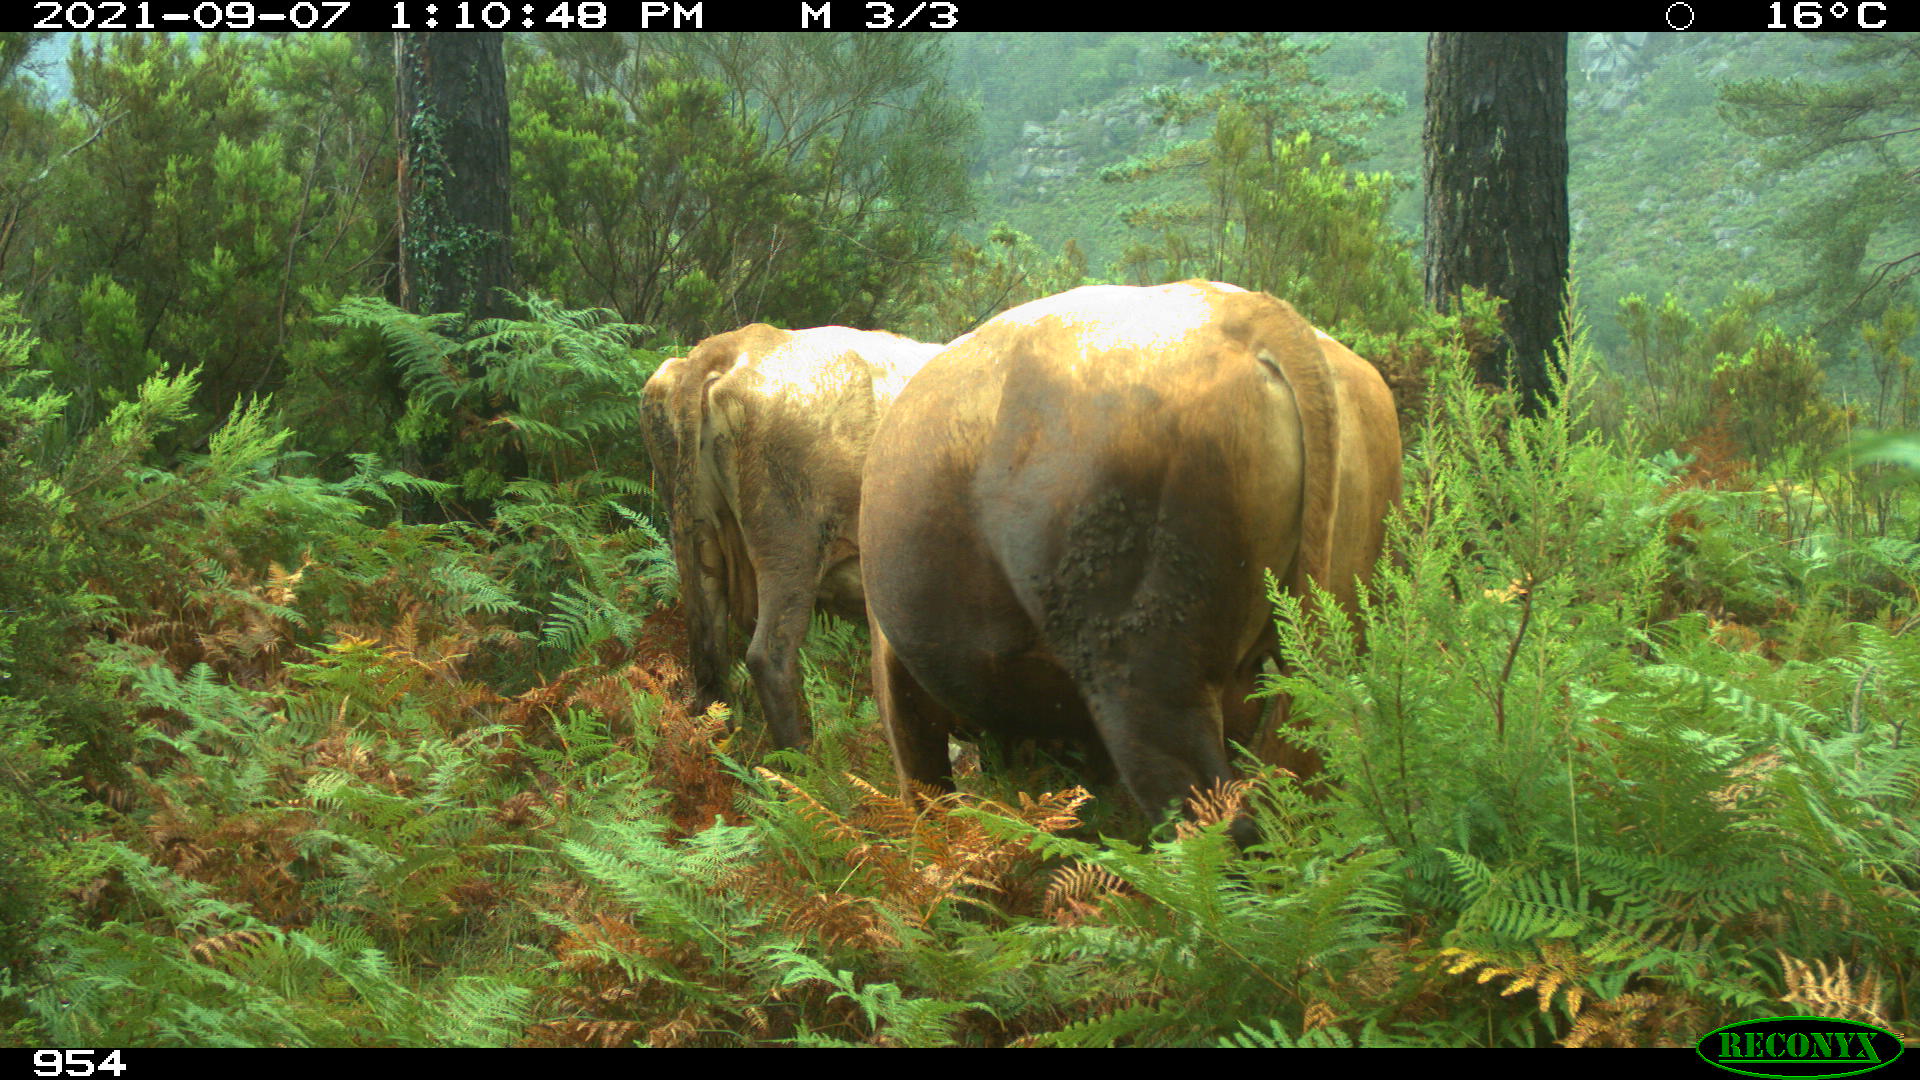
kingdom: Animalia
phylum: Chordata
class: Mammalia
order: Carnivora
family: Canidae
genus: Canis
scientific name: Canis lupus
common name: Gray wolf
